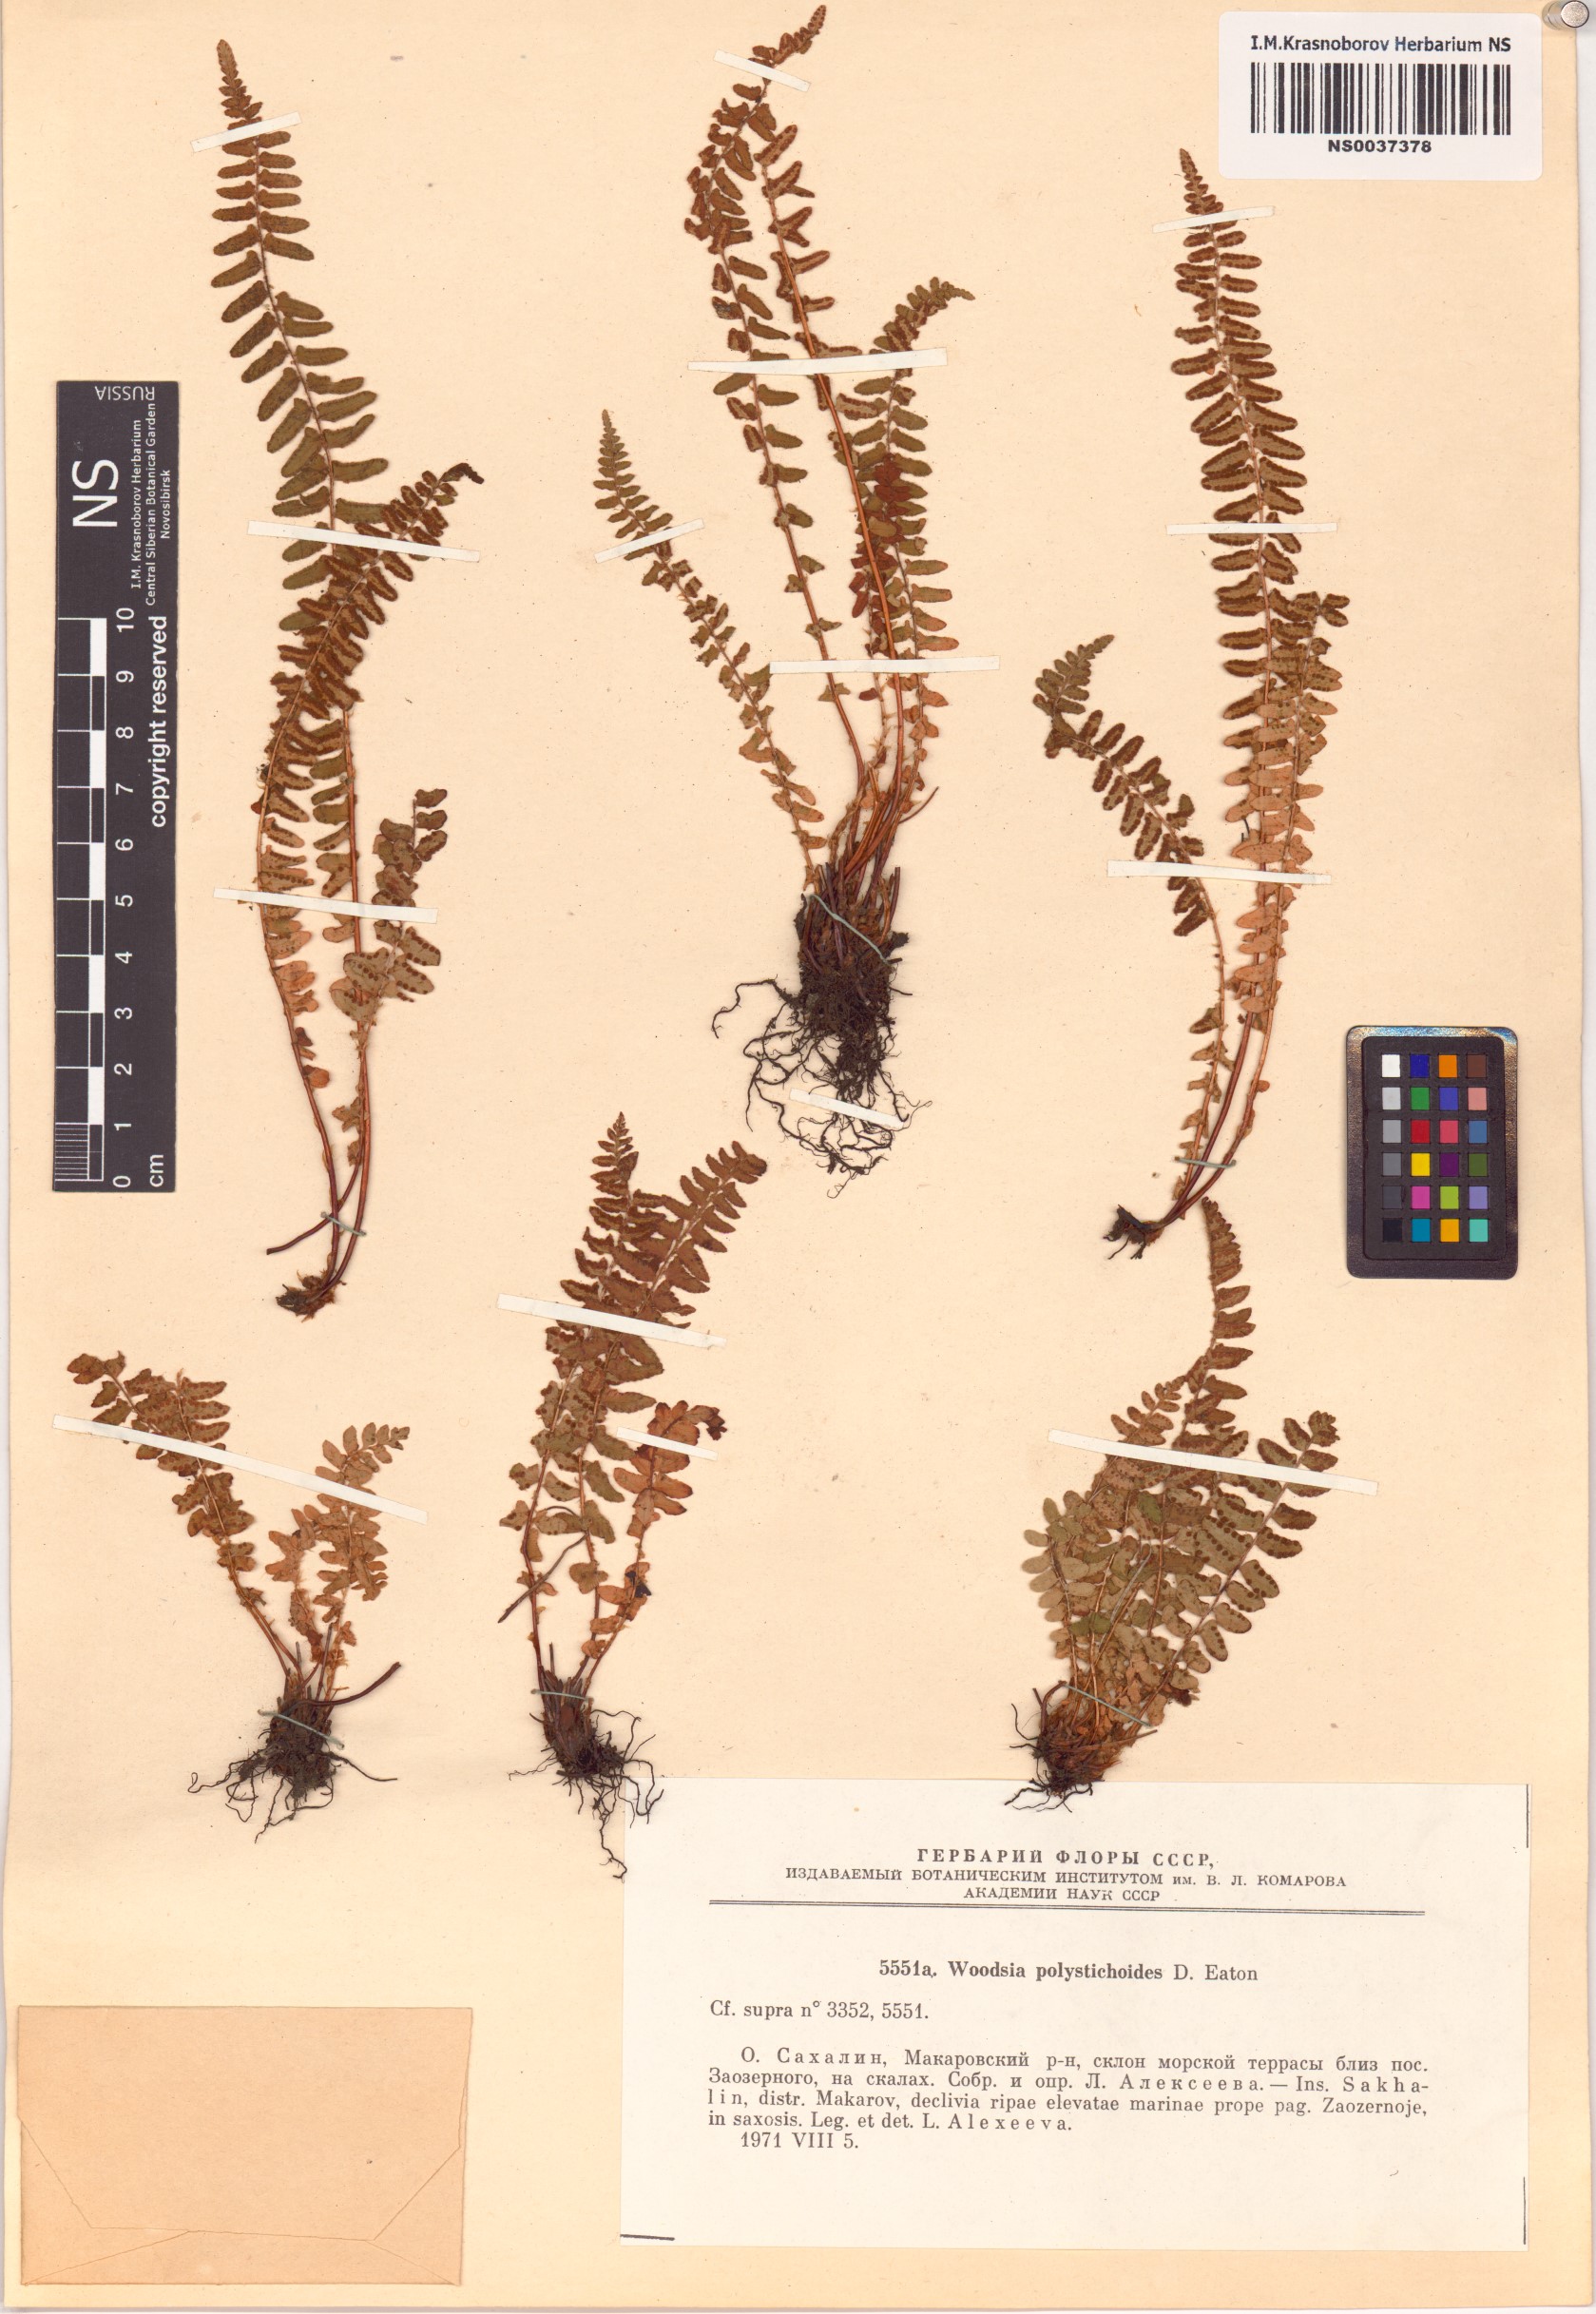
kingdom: Plantae
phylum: Tracheophyta
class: Polypodiopsida
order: Polypodiales
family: Woodsiaceae
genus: Woodsia
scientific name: Woodsia polystichoides
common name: Holly fern woodsia
